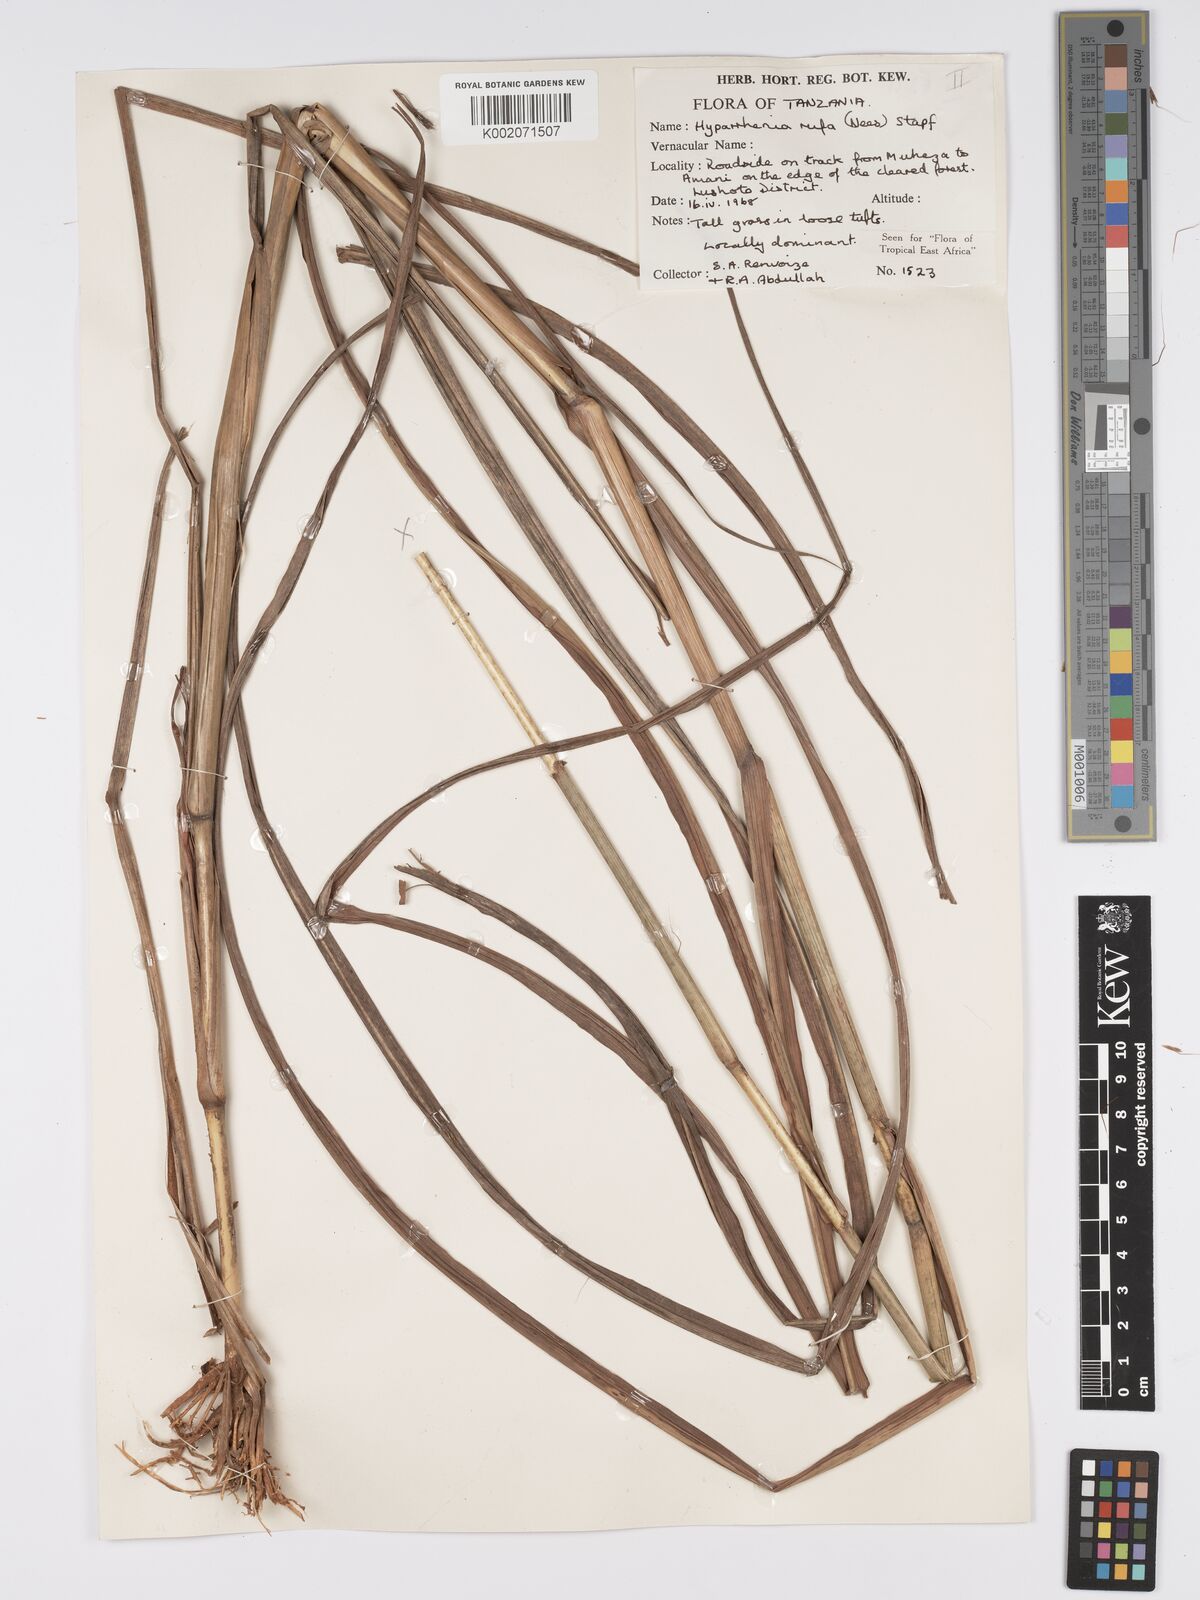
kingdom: Plantae
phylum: Tracheophyta
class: Liliopsida
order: Poales
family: Poaceae
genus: Hyparrhenia
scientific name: Hyparrhenia rufa
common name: Jaraguagrass
